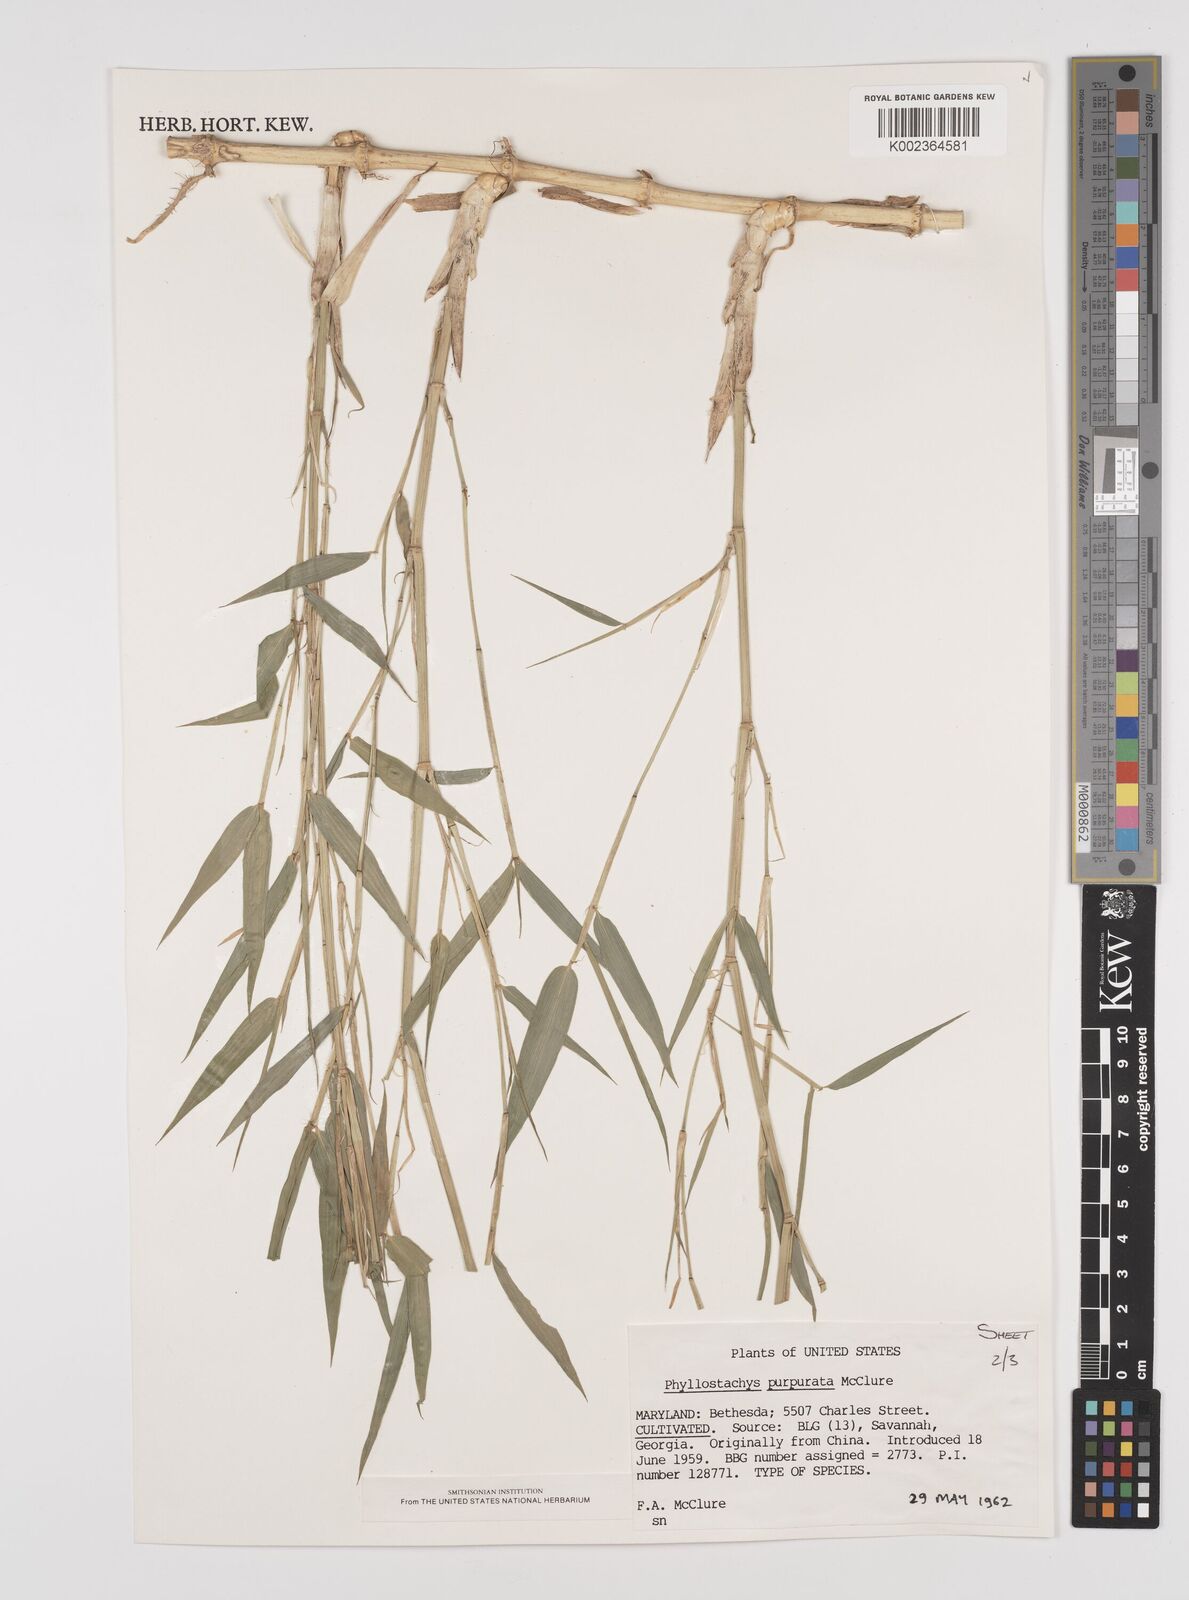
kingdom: Plantae
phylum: Tracheophyta
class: Liliopsida
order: Poales
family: Poaceae
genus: Phyllostachys
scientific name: Phyllostachys heteroclada
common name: Fishscale bamboo
